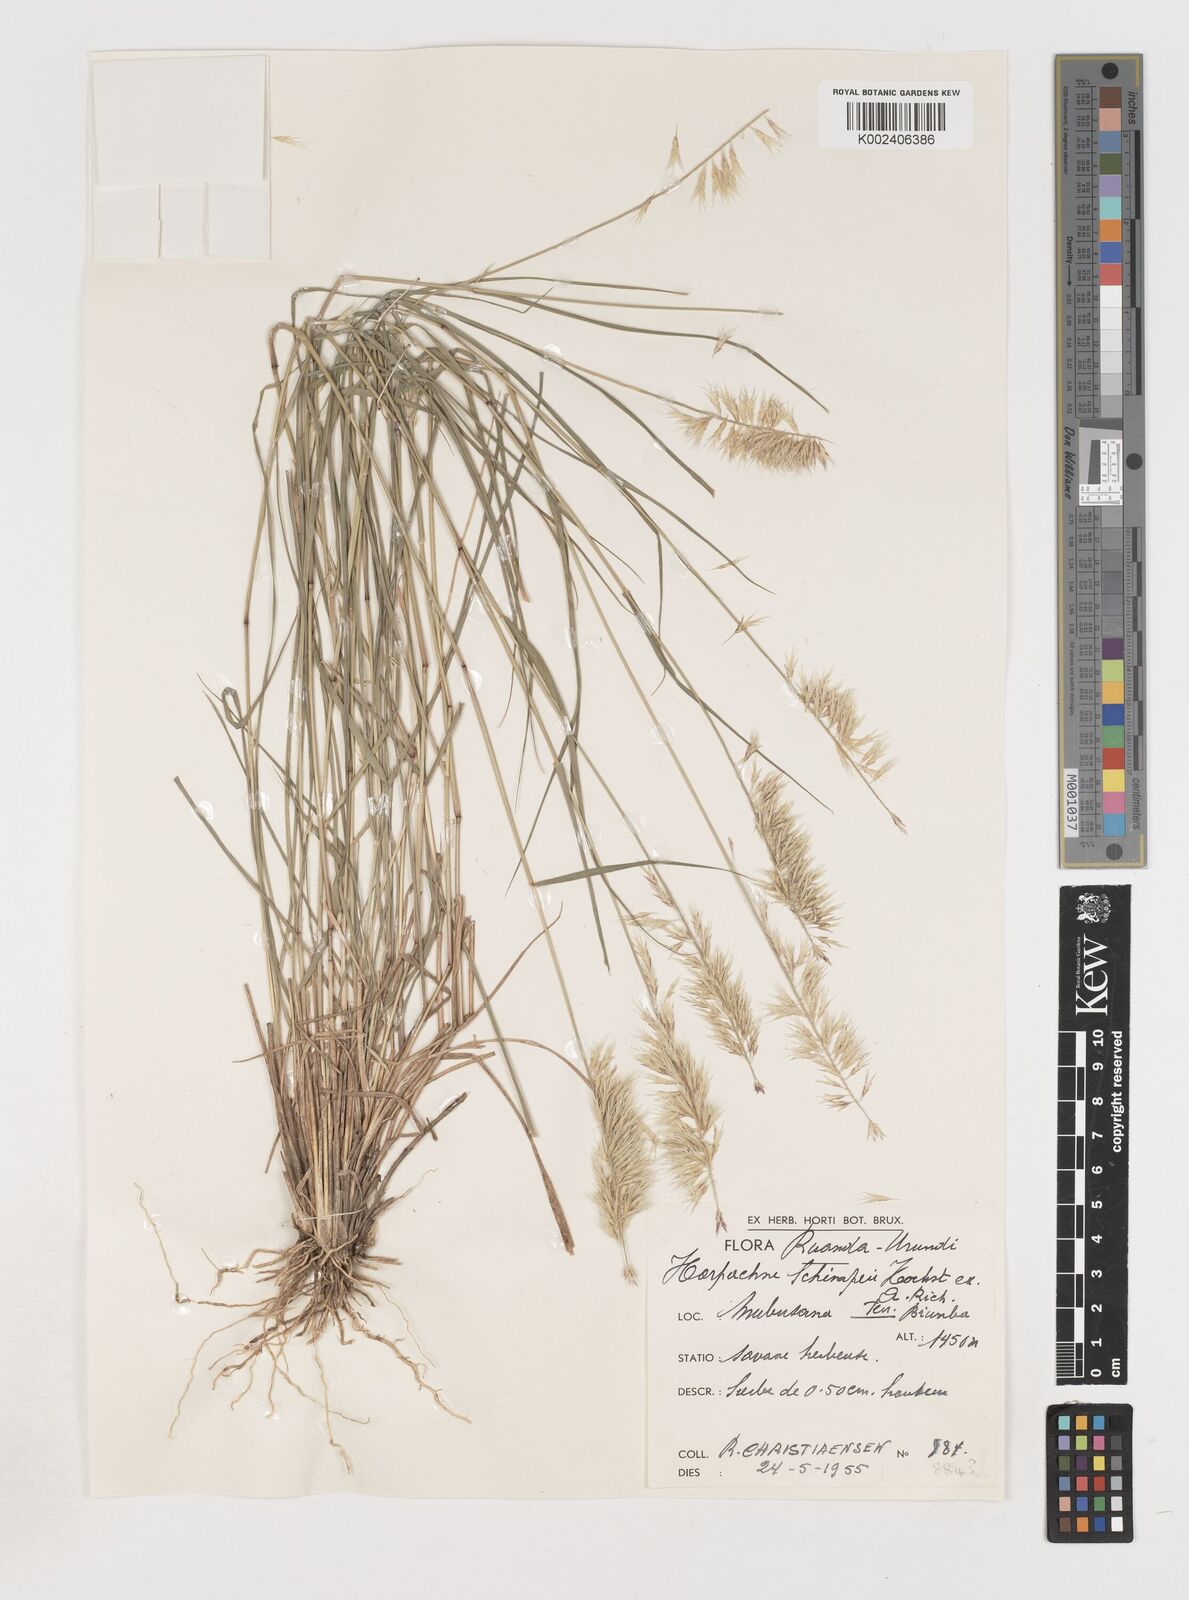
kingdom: Plantae
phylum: Tracheophyta
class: Liliopsida
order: Poales
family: Poaceae
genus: Harpachne
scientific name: Harpachne schimperi
